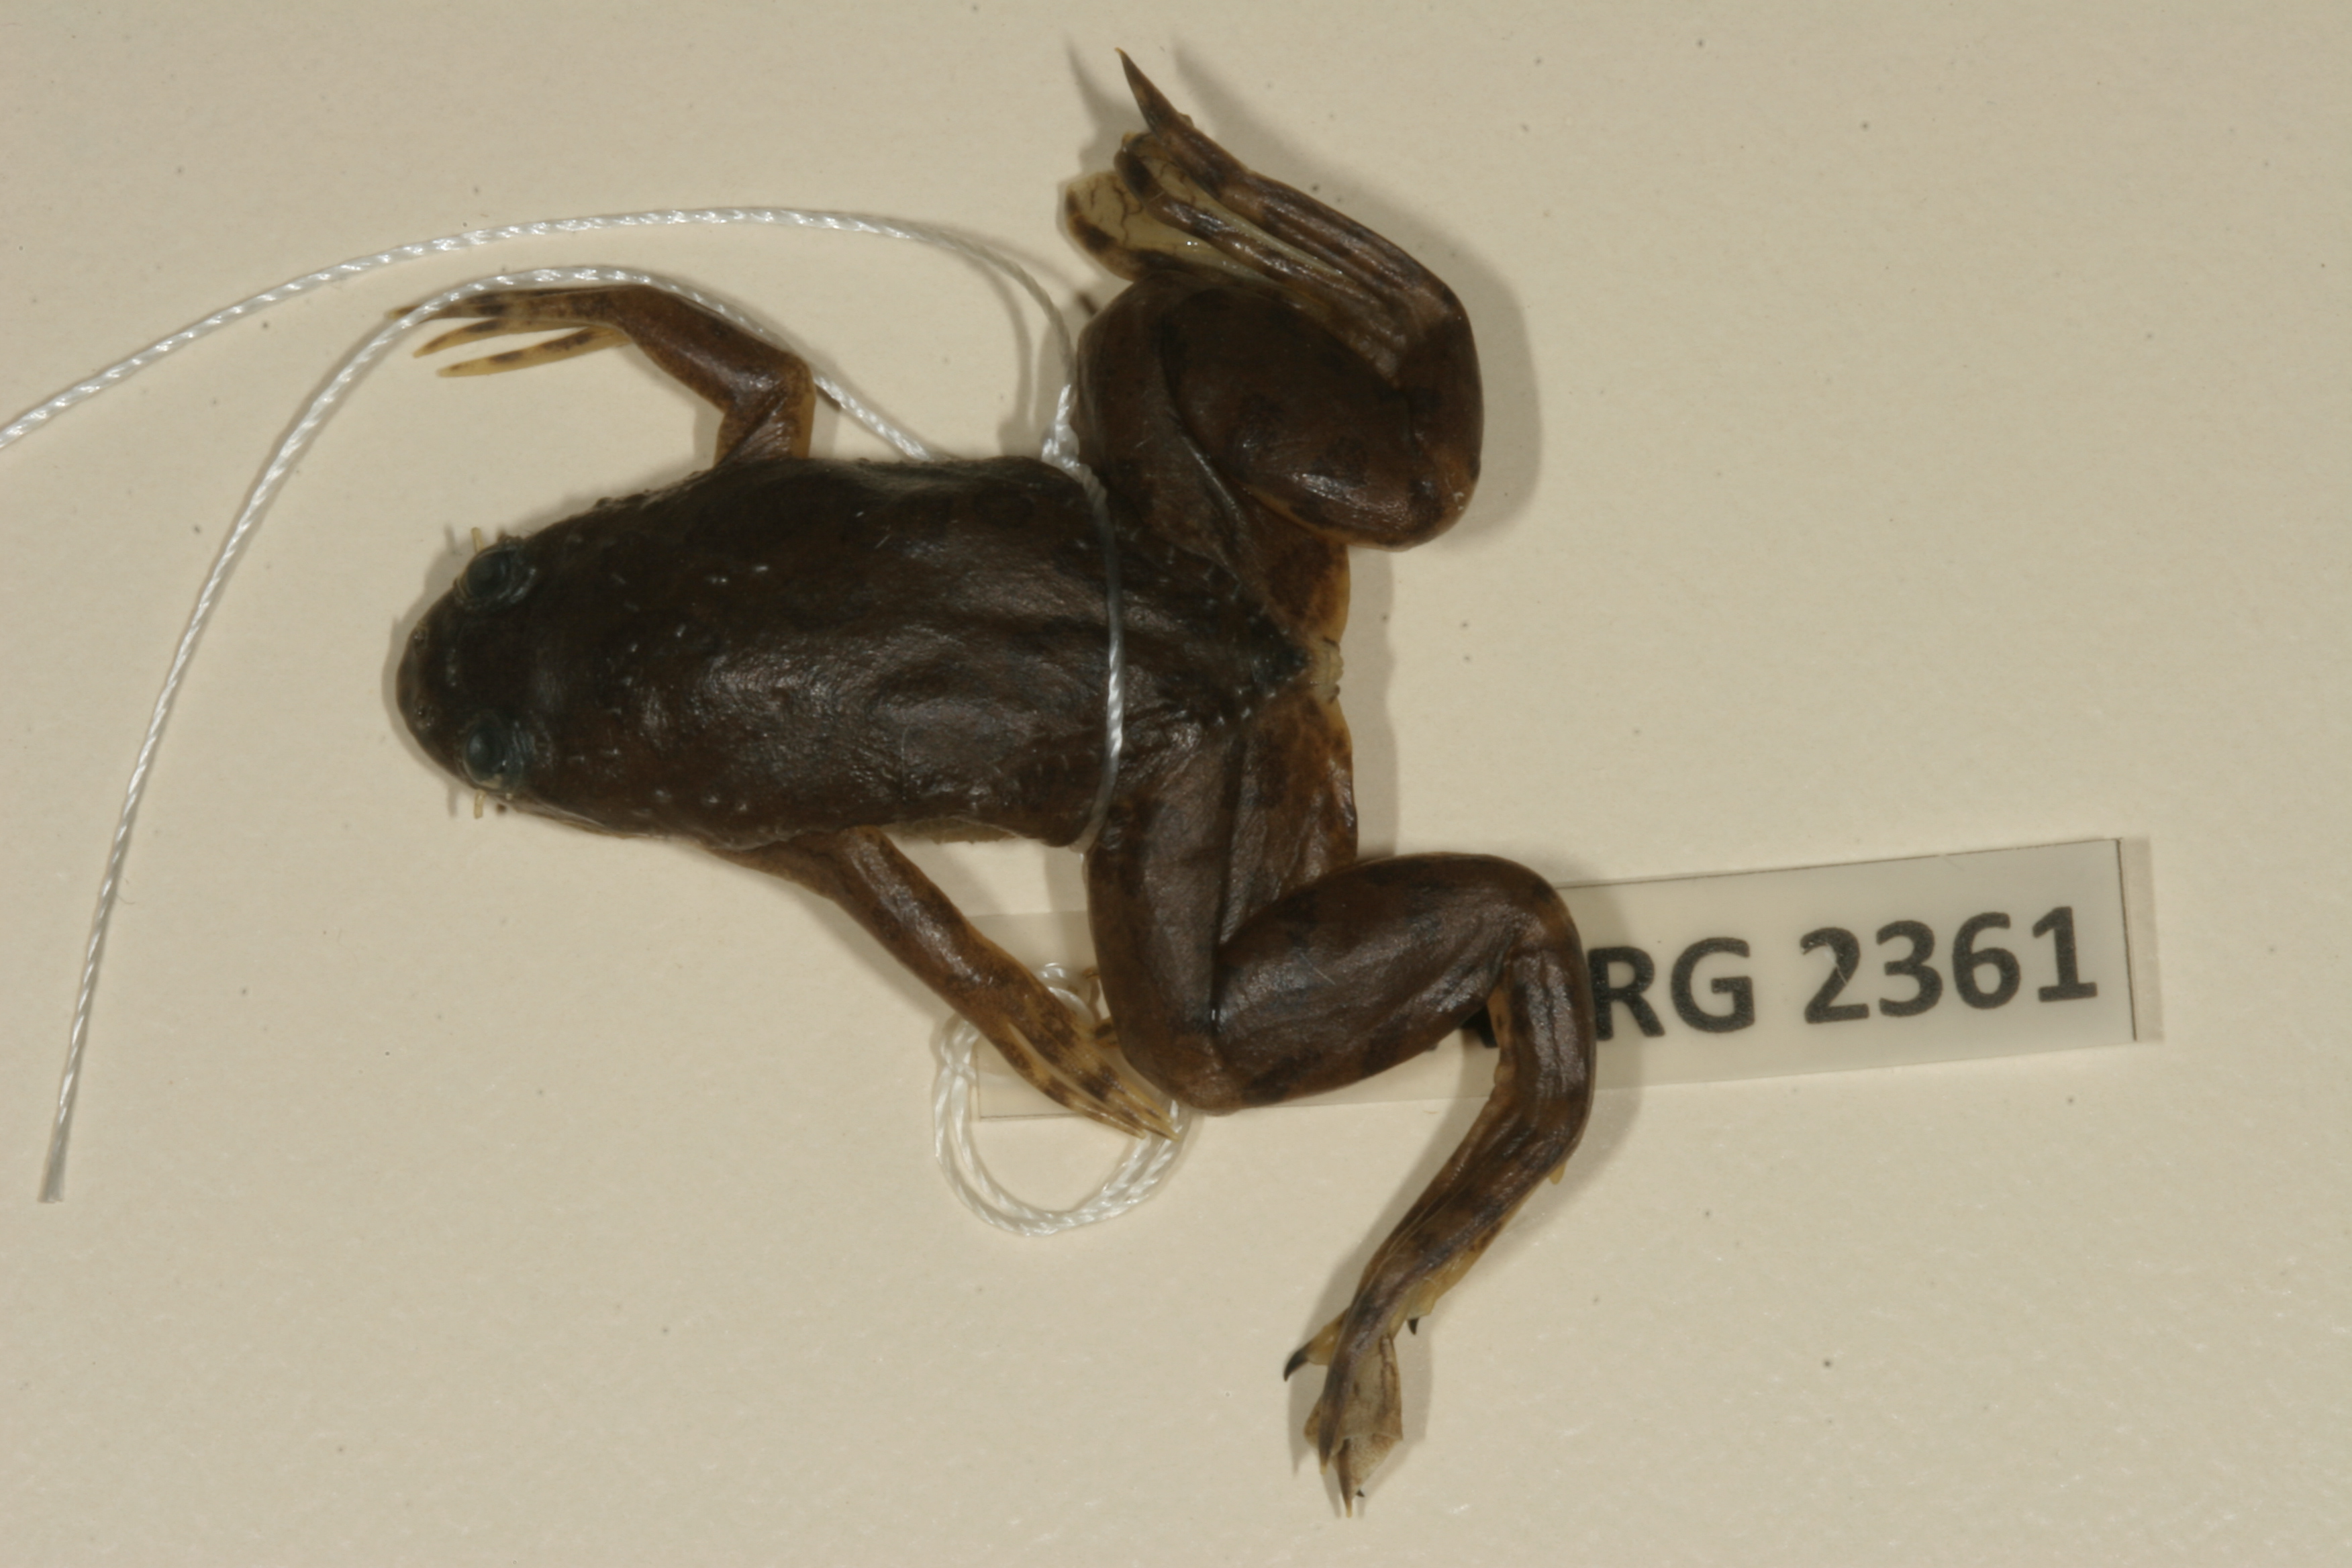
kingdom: Animalia
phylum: Chordata
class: Amphibia
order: Anura
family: Pipidae
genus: Xenopus
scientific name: Xenopus muelleri
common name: Muller's clawed frog
